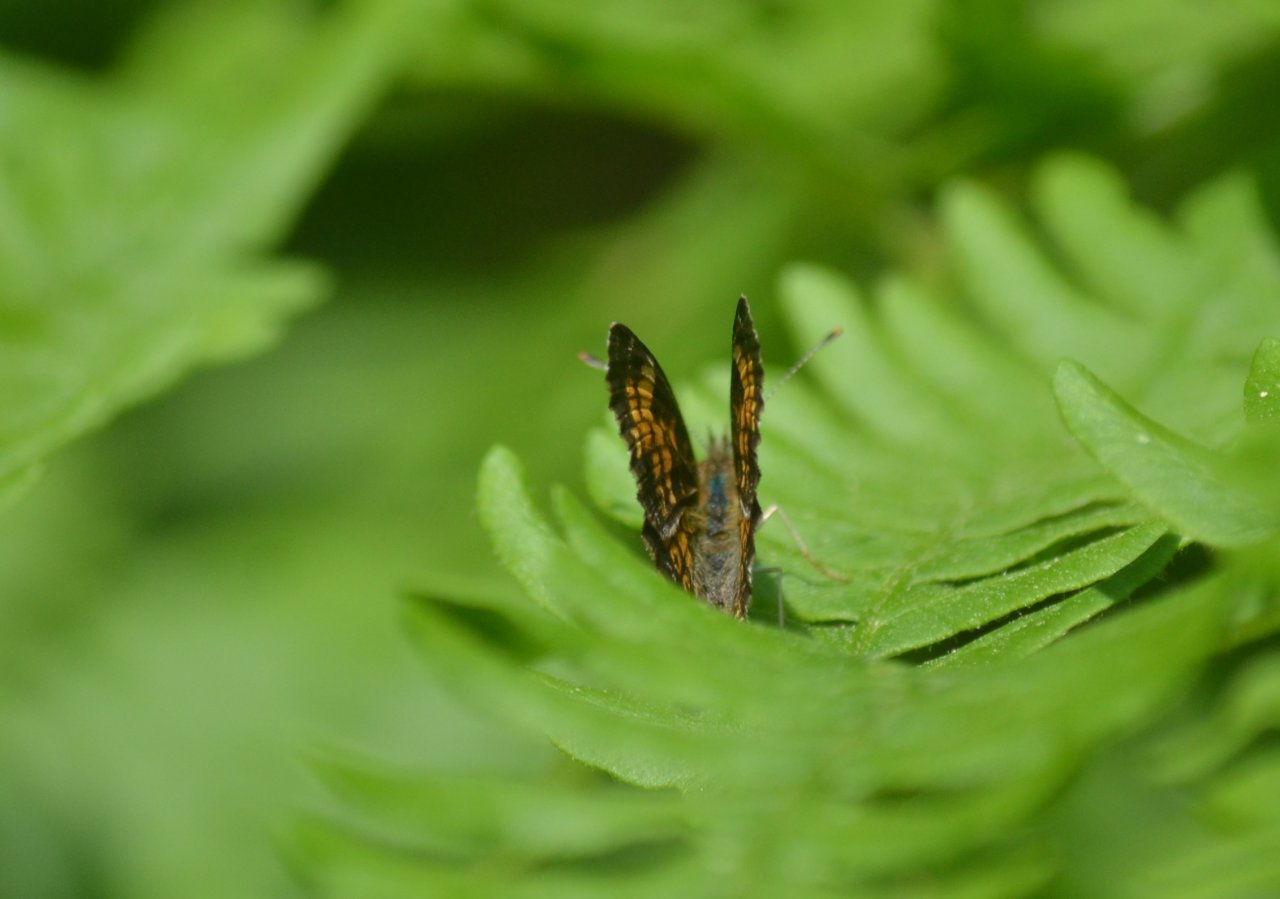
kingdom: Animalia
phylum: Arthropoda
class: Insecta
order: Lepidoptera
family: Nymphalidae
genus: Phyciodes
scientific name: Phyciodes tharos
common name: Northern Crescent
